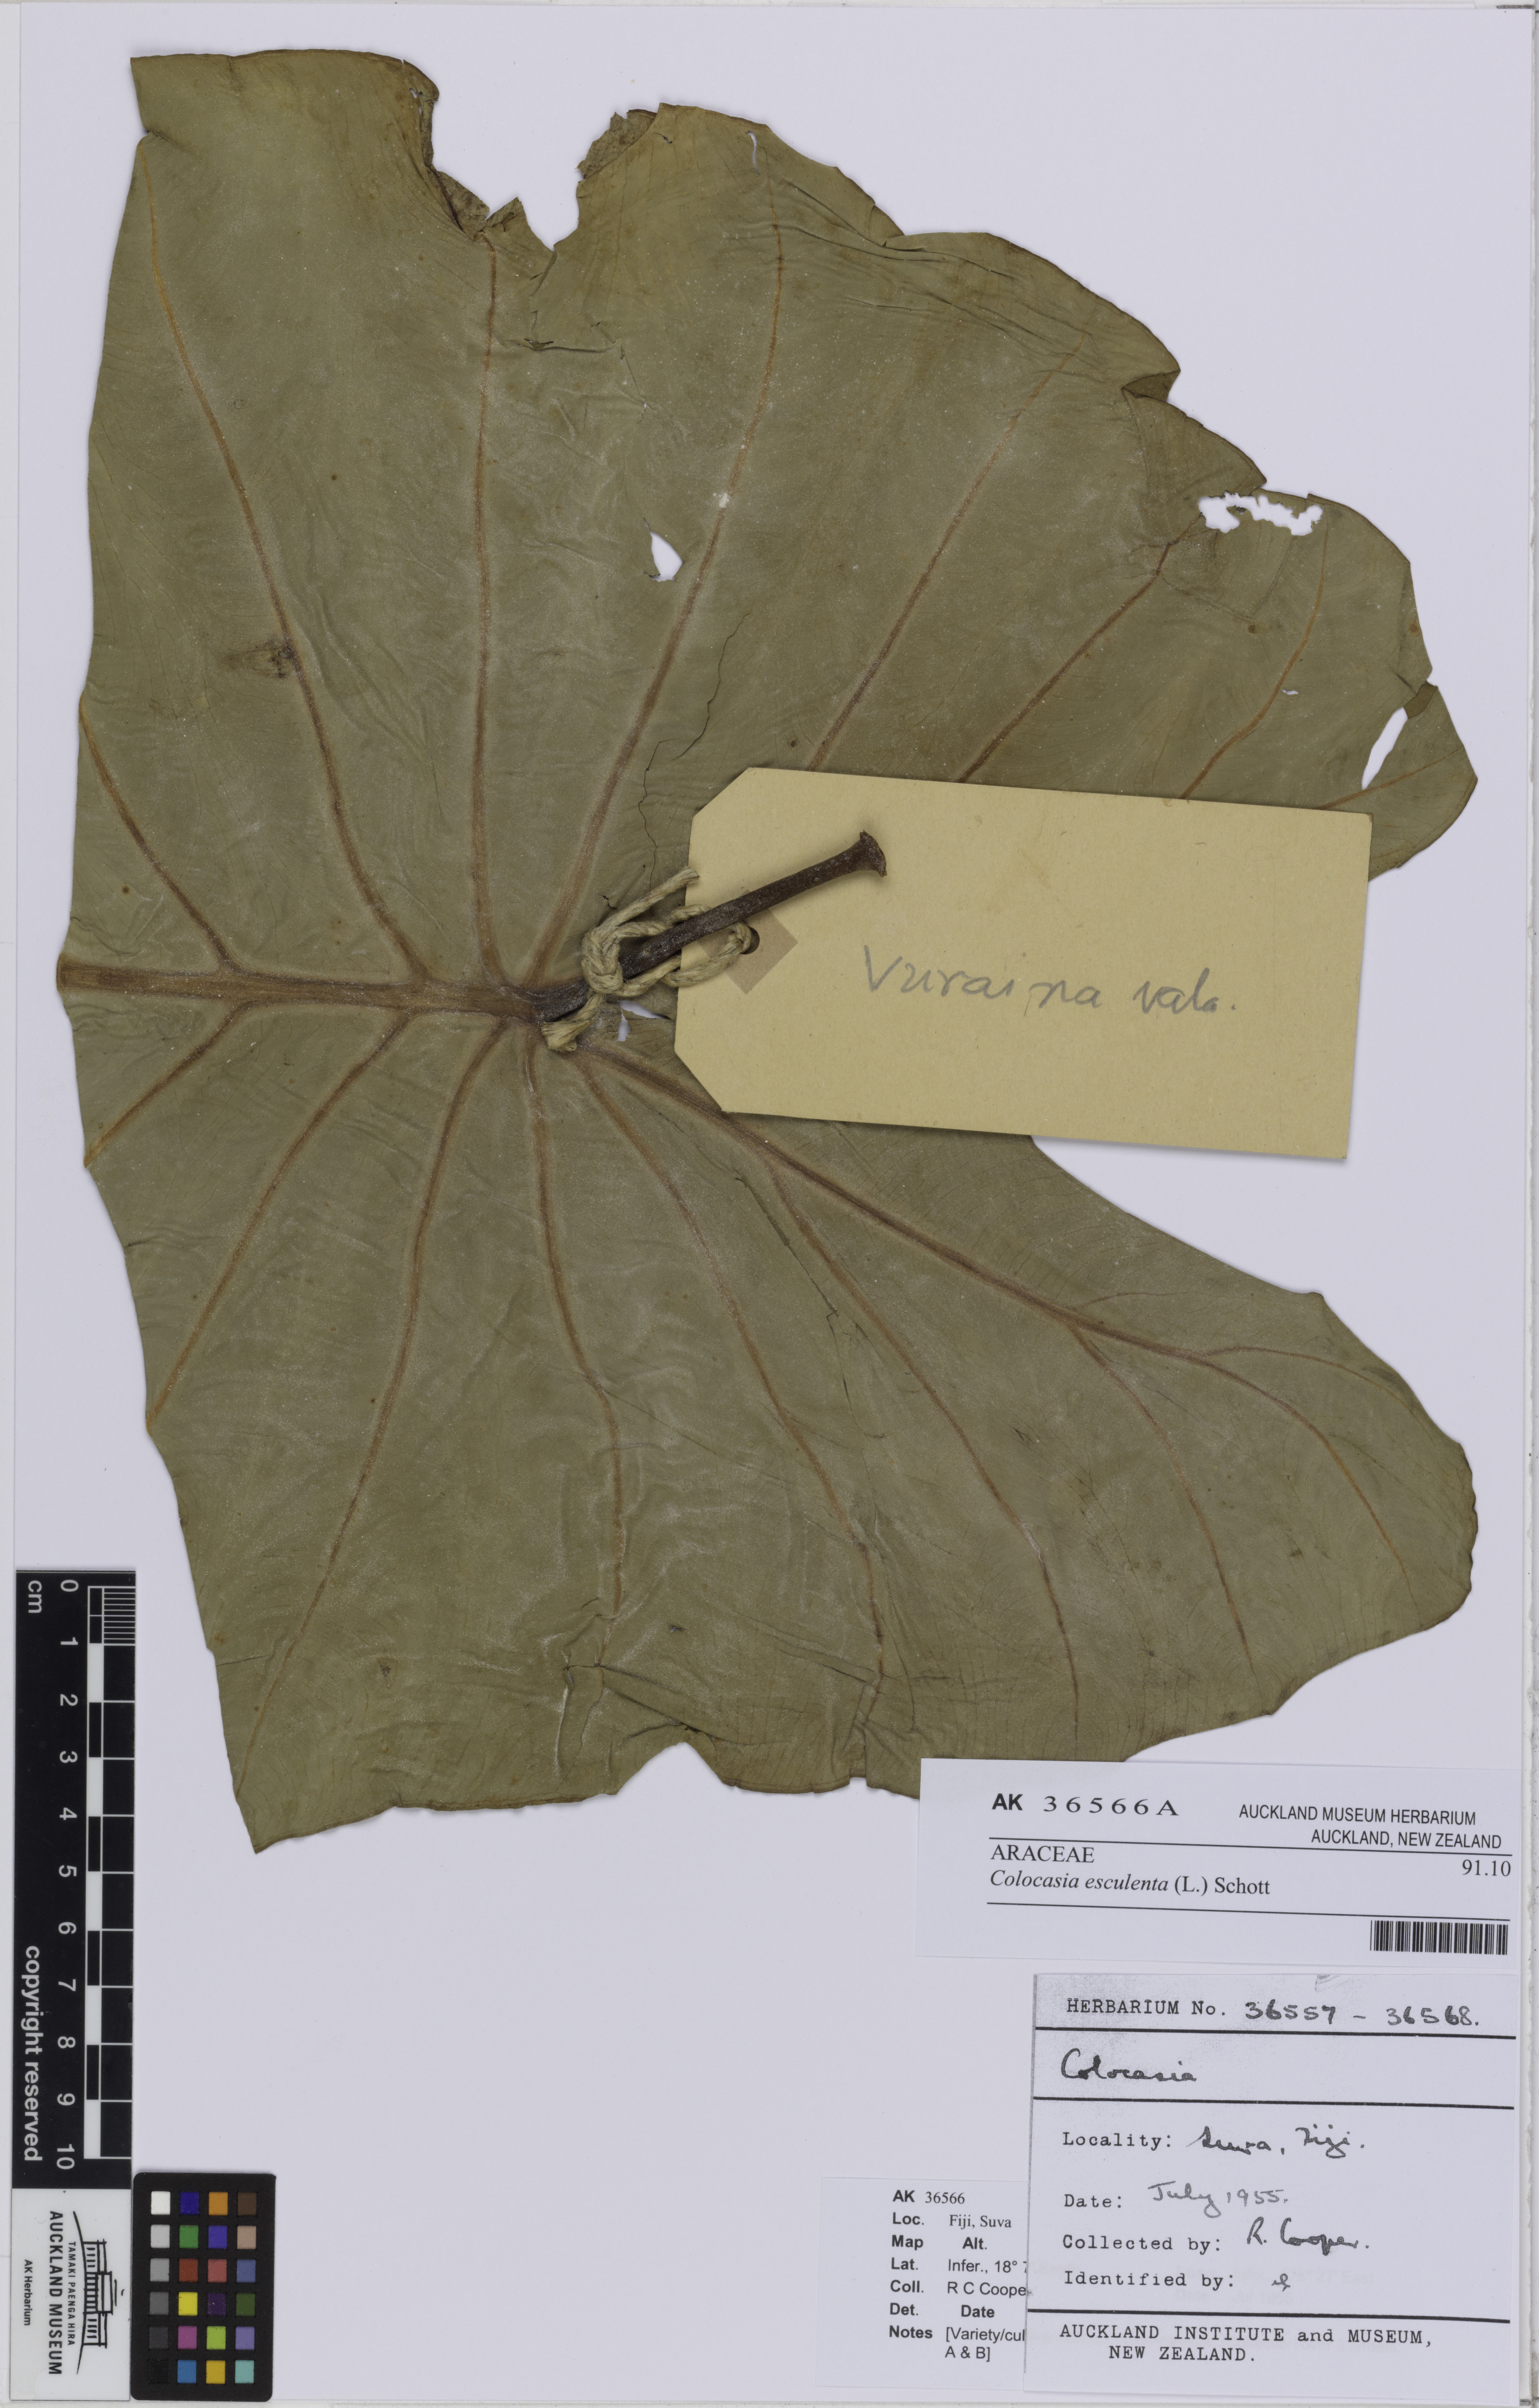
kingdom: Plantae
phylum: Tracheophyta
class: Liliopsida
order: Alismatales
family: Araceae
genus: Colocasia
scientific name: Colocasia esculenta
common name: Taro
